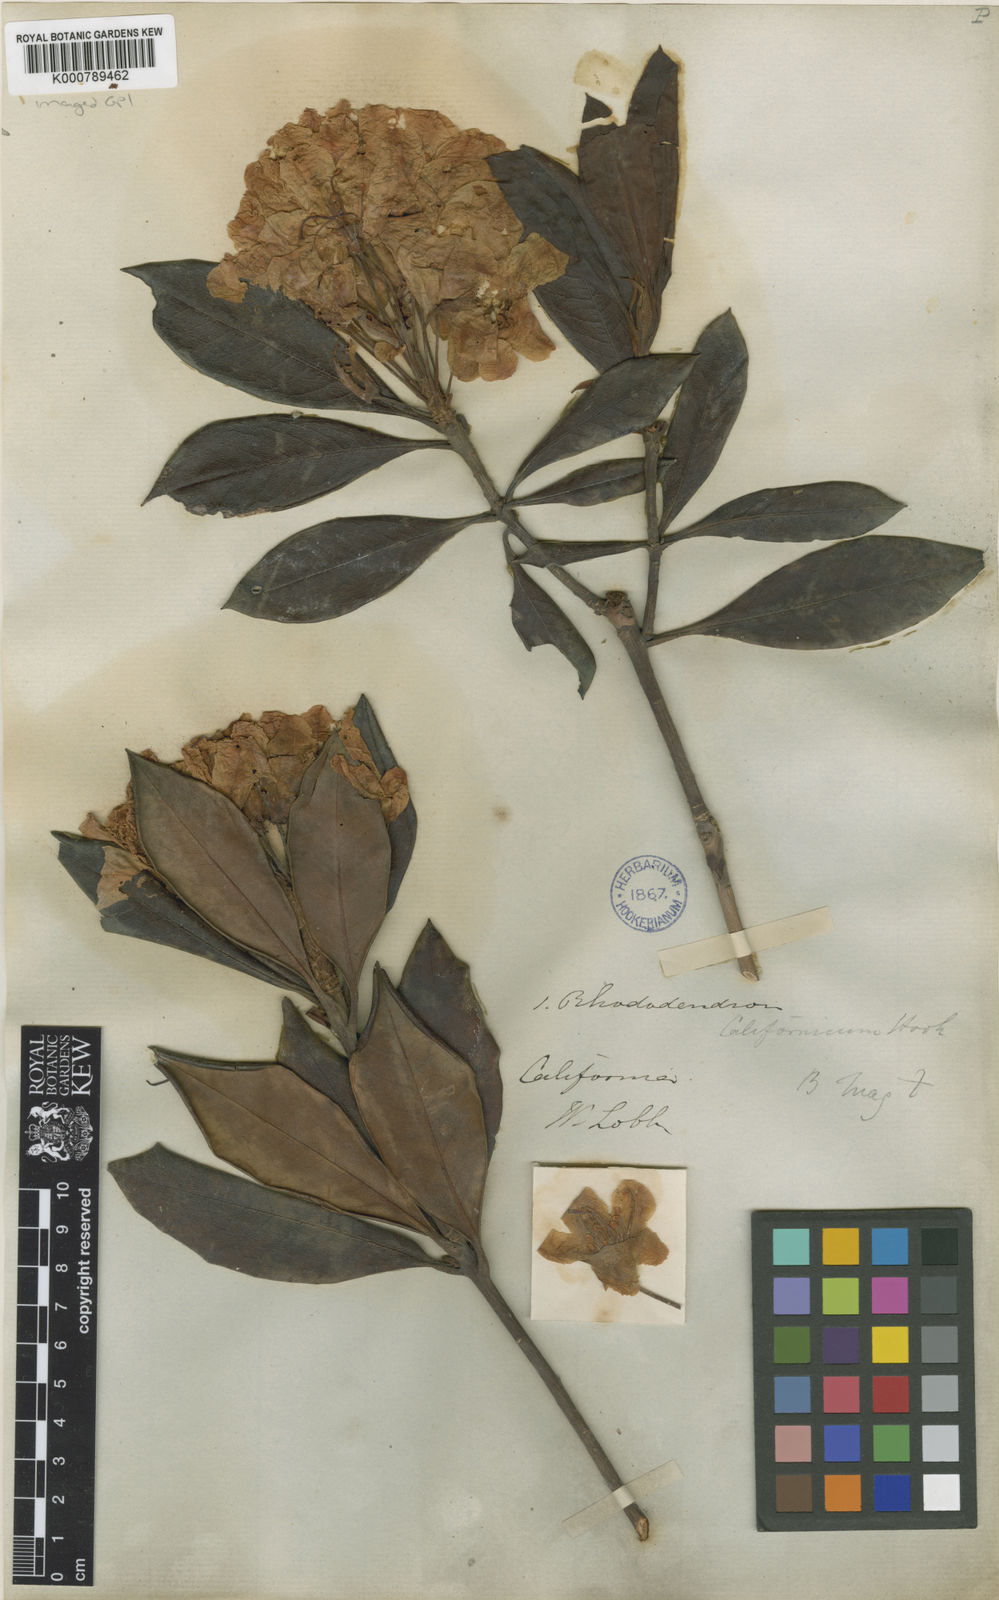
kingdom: Plantae
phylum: Tracheophyta
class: Magnoliopsida
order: Ericales
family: Ericaceae
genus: Rhododendron
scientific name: Rhododendron macrophyllum
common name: California rose bay
